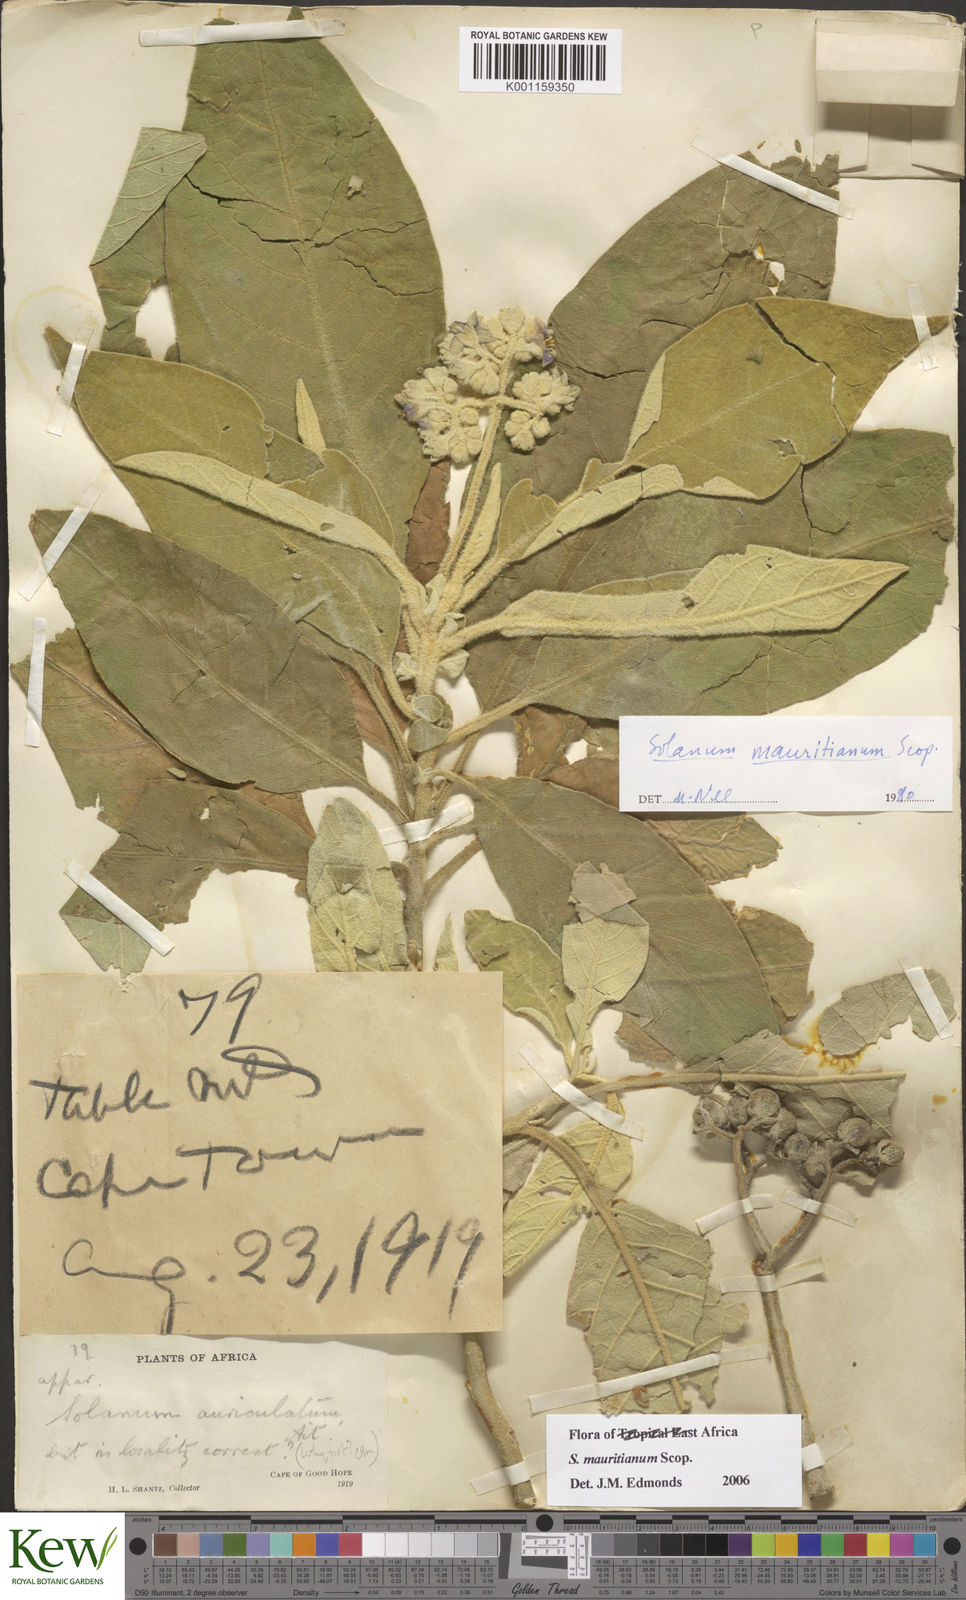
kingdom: Plantae
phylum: Tracheophyta
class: Magnoliopsida
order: Solanales
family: Solanaceae
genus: Solanum
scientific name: Solanum mauritianum
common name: Earleaf nightshade
